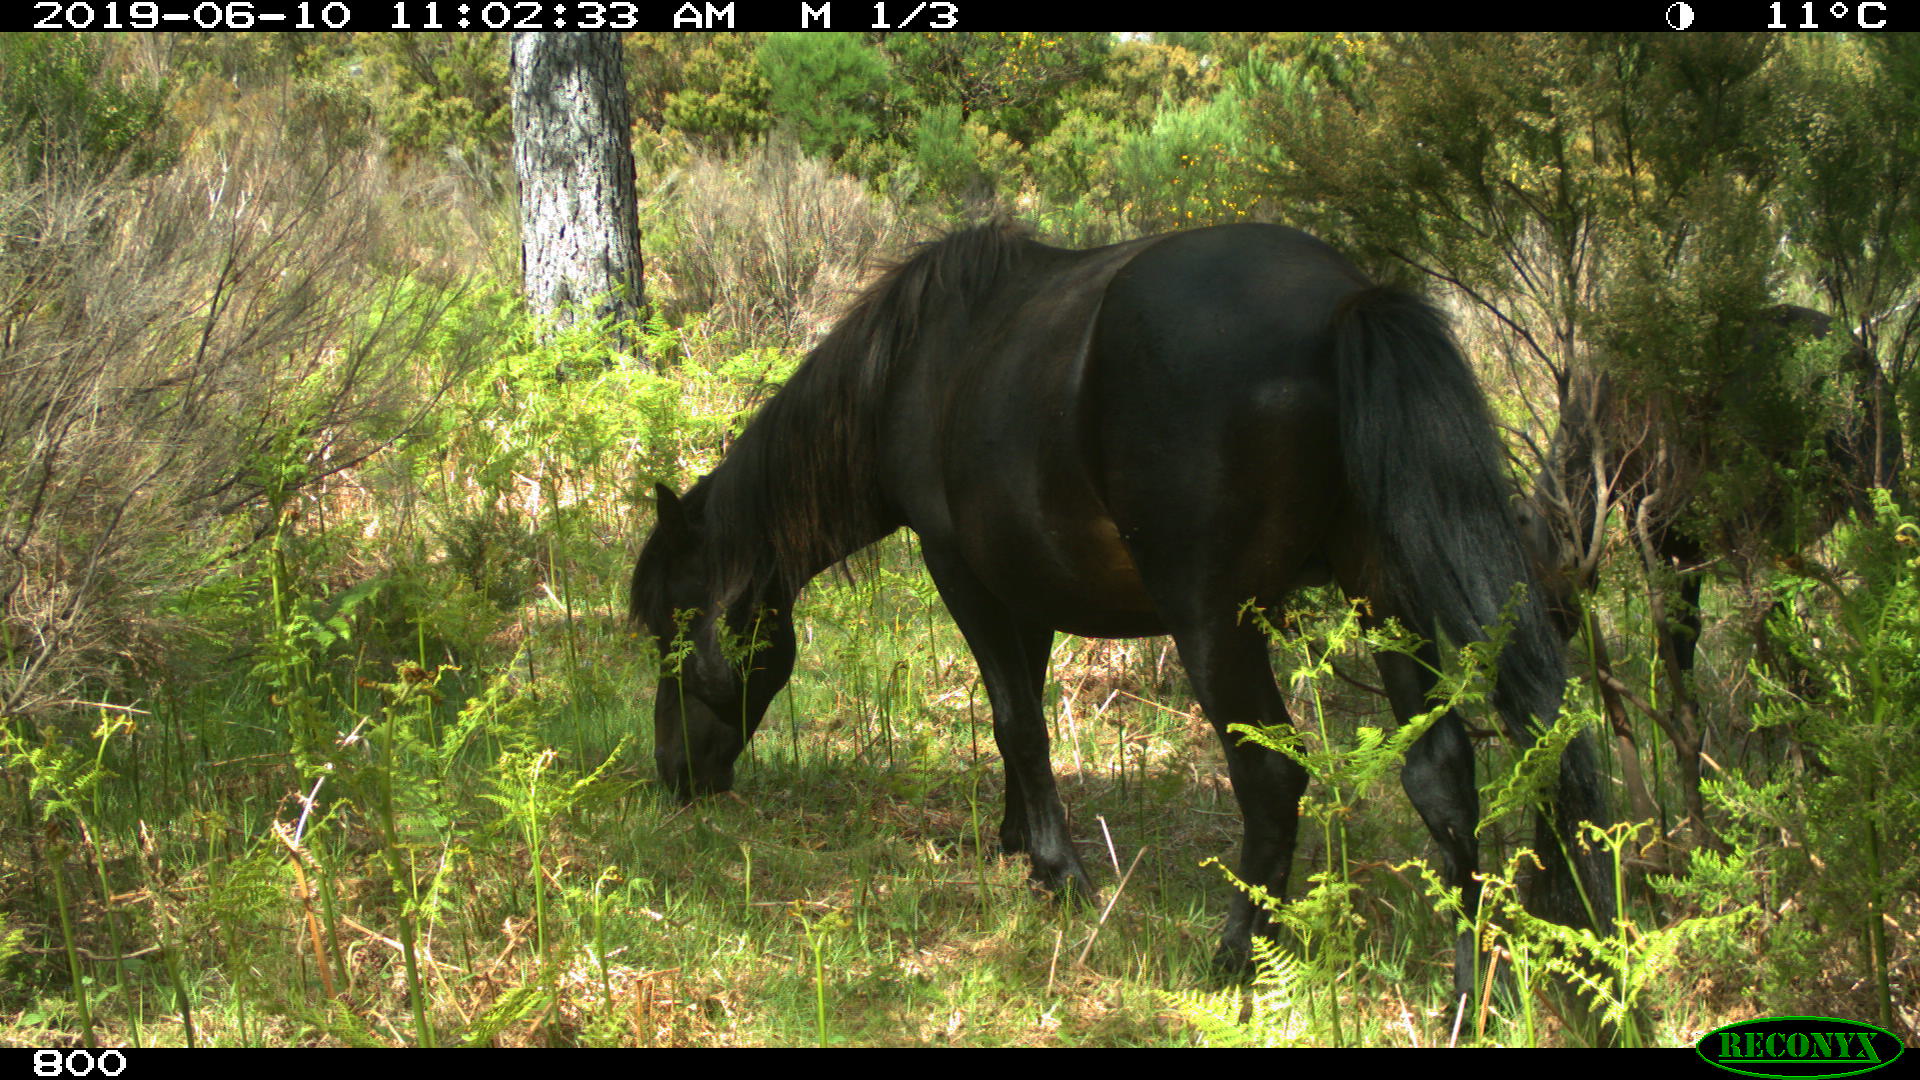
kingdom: Animalia
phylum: Chordata
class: Mammalia
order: Perissodactyla
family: Equidae
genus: Equus
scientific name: Equus caballus
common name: Horse
